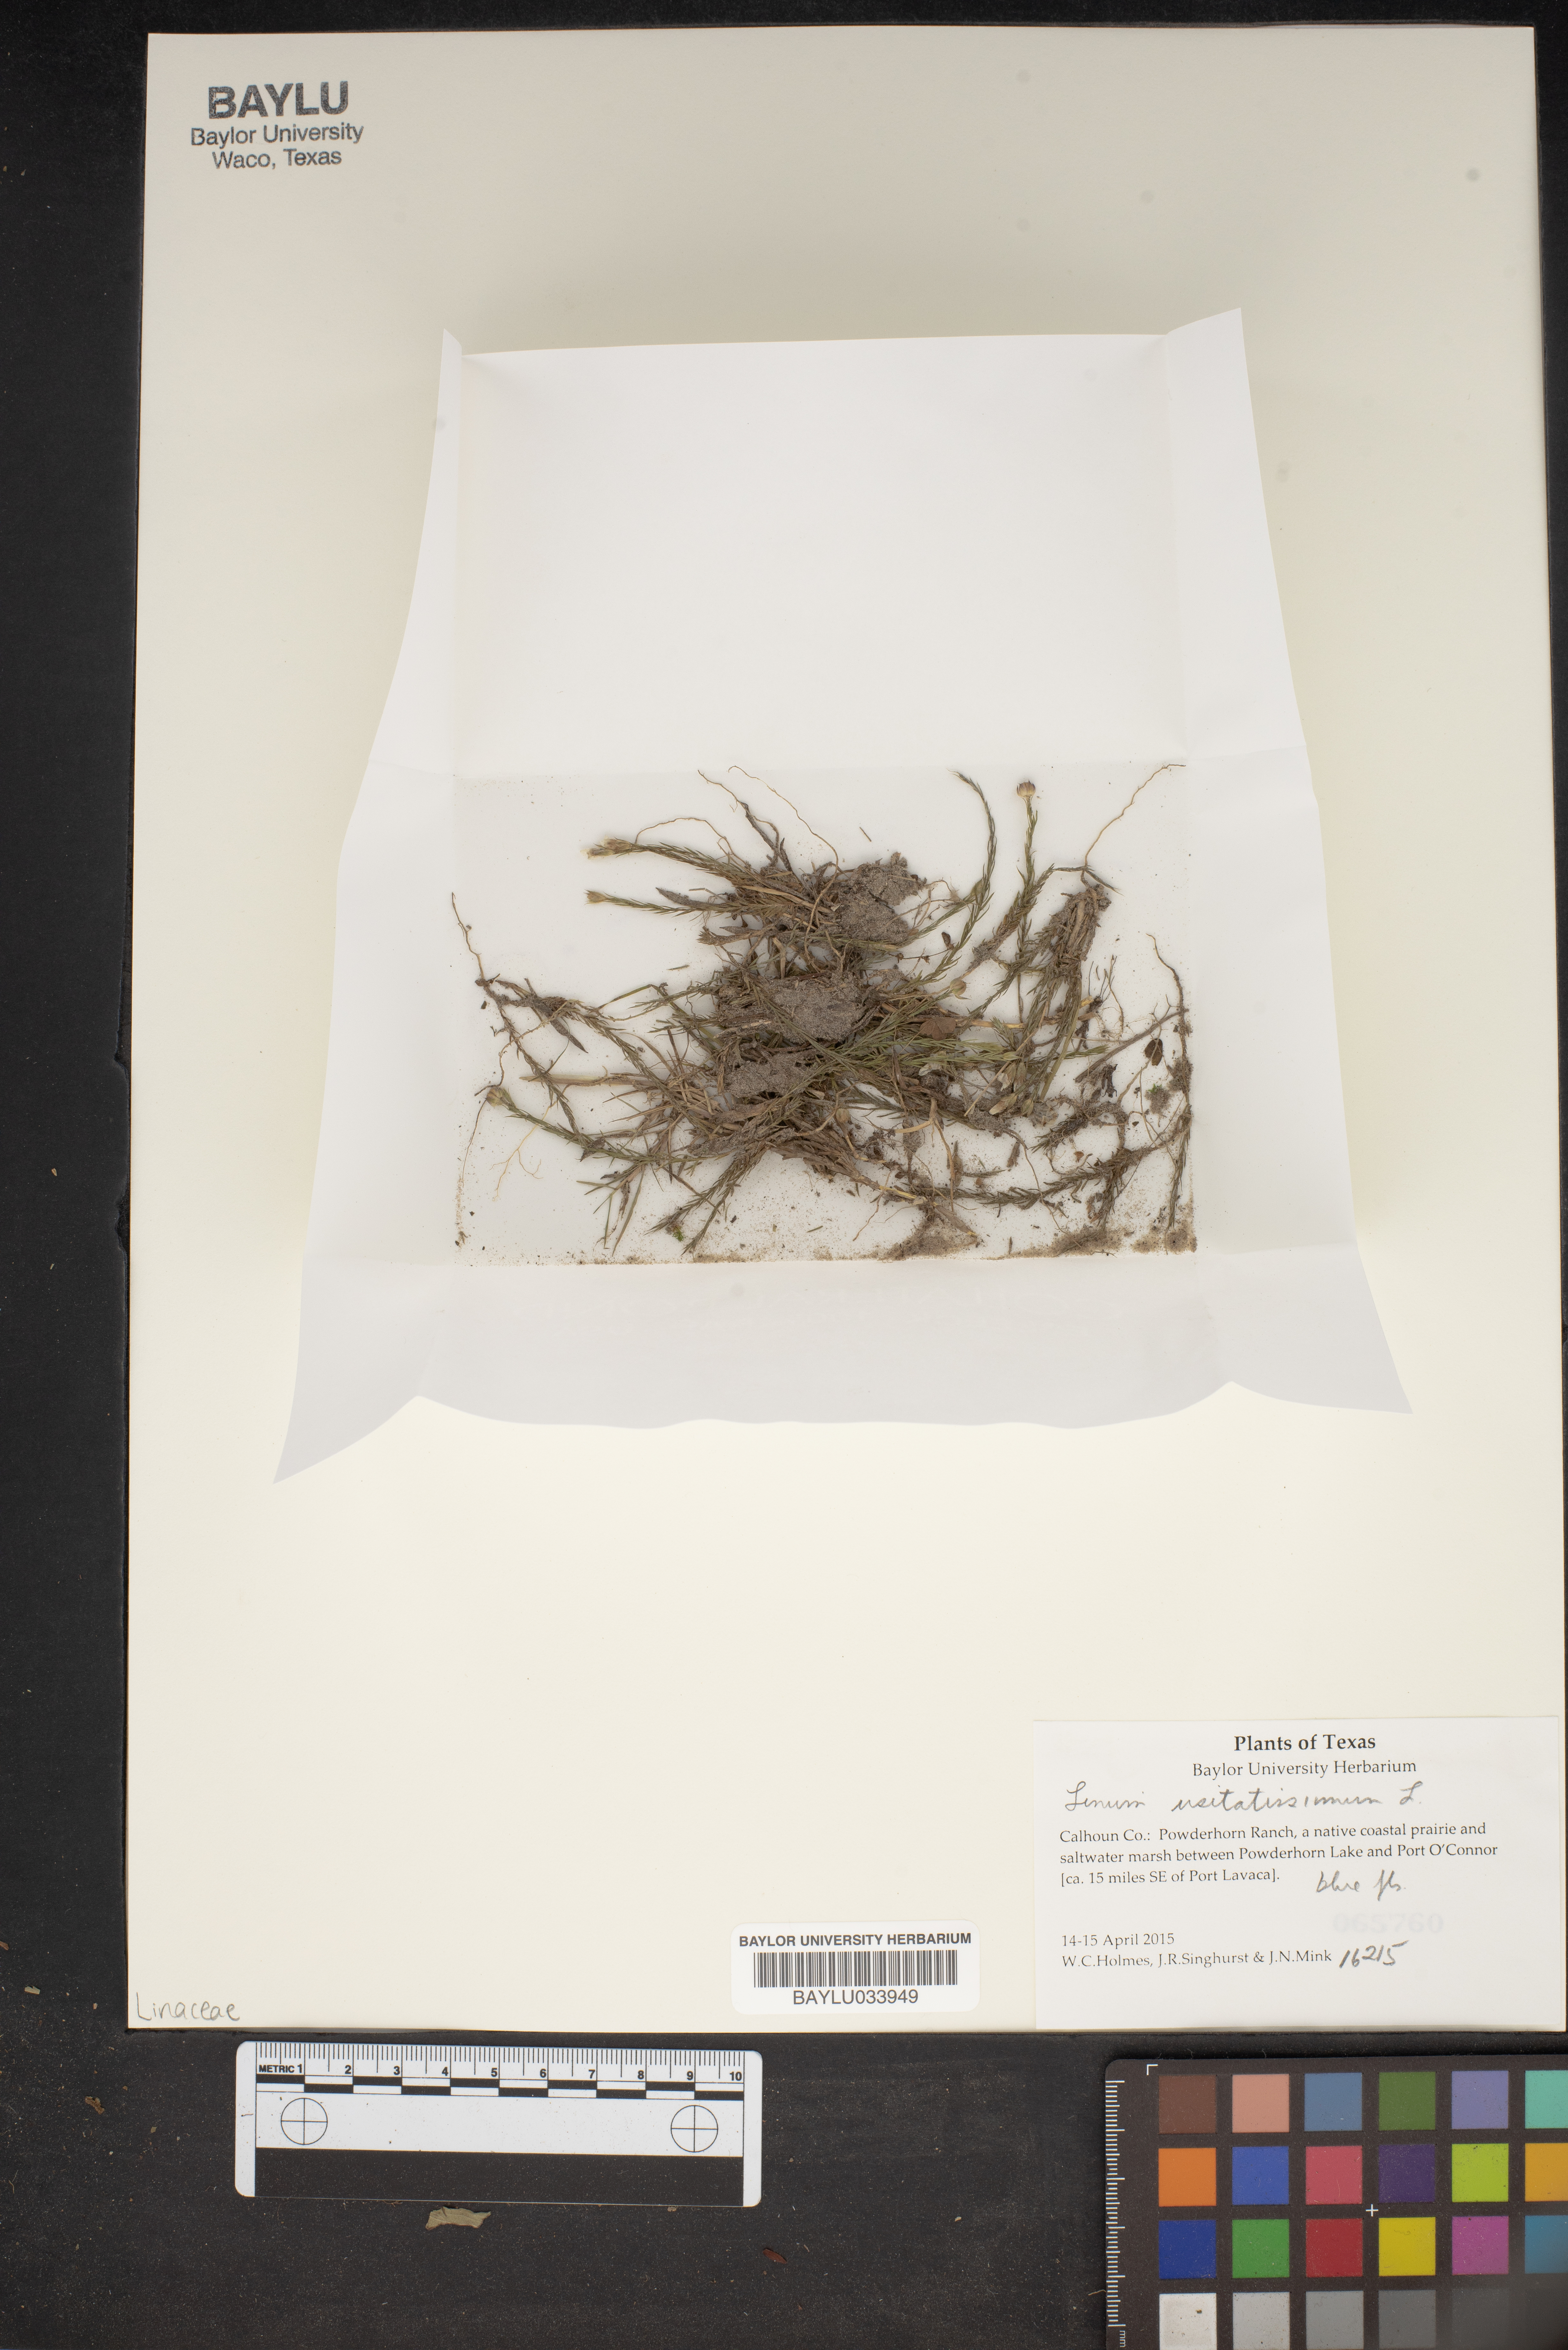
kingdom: Plantae
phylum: Tracheophyta
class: Magnoliopsida
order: Malpighiales
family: Linaceae
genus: Linum
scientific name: Linum usitatissimum
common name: Flax
